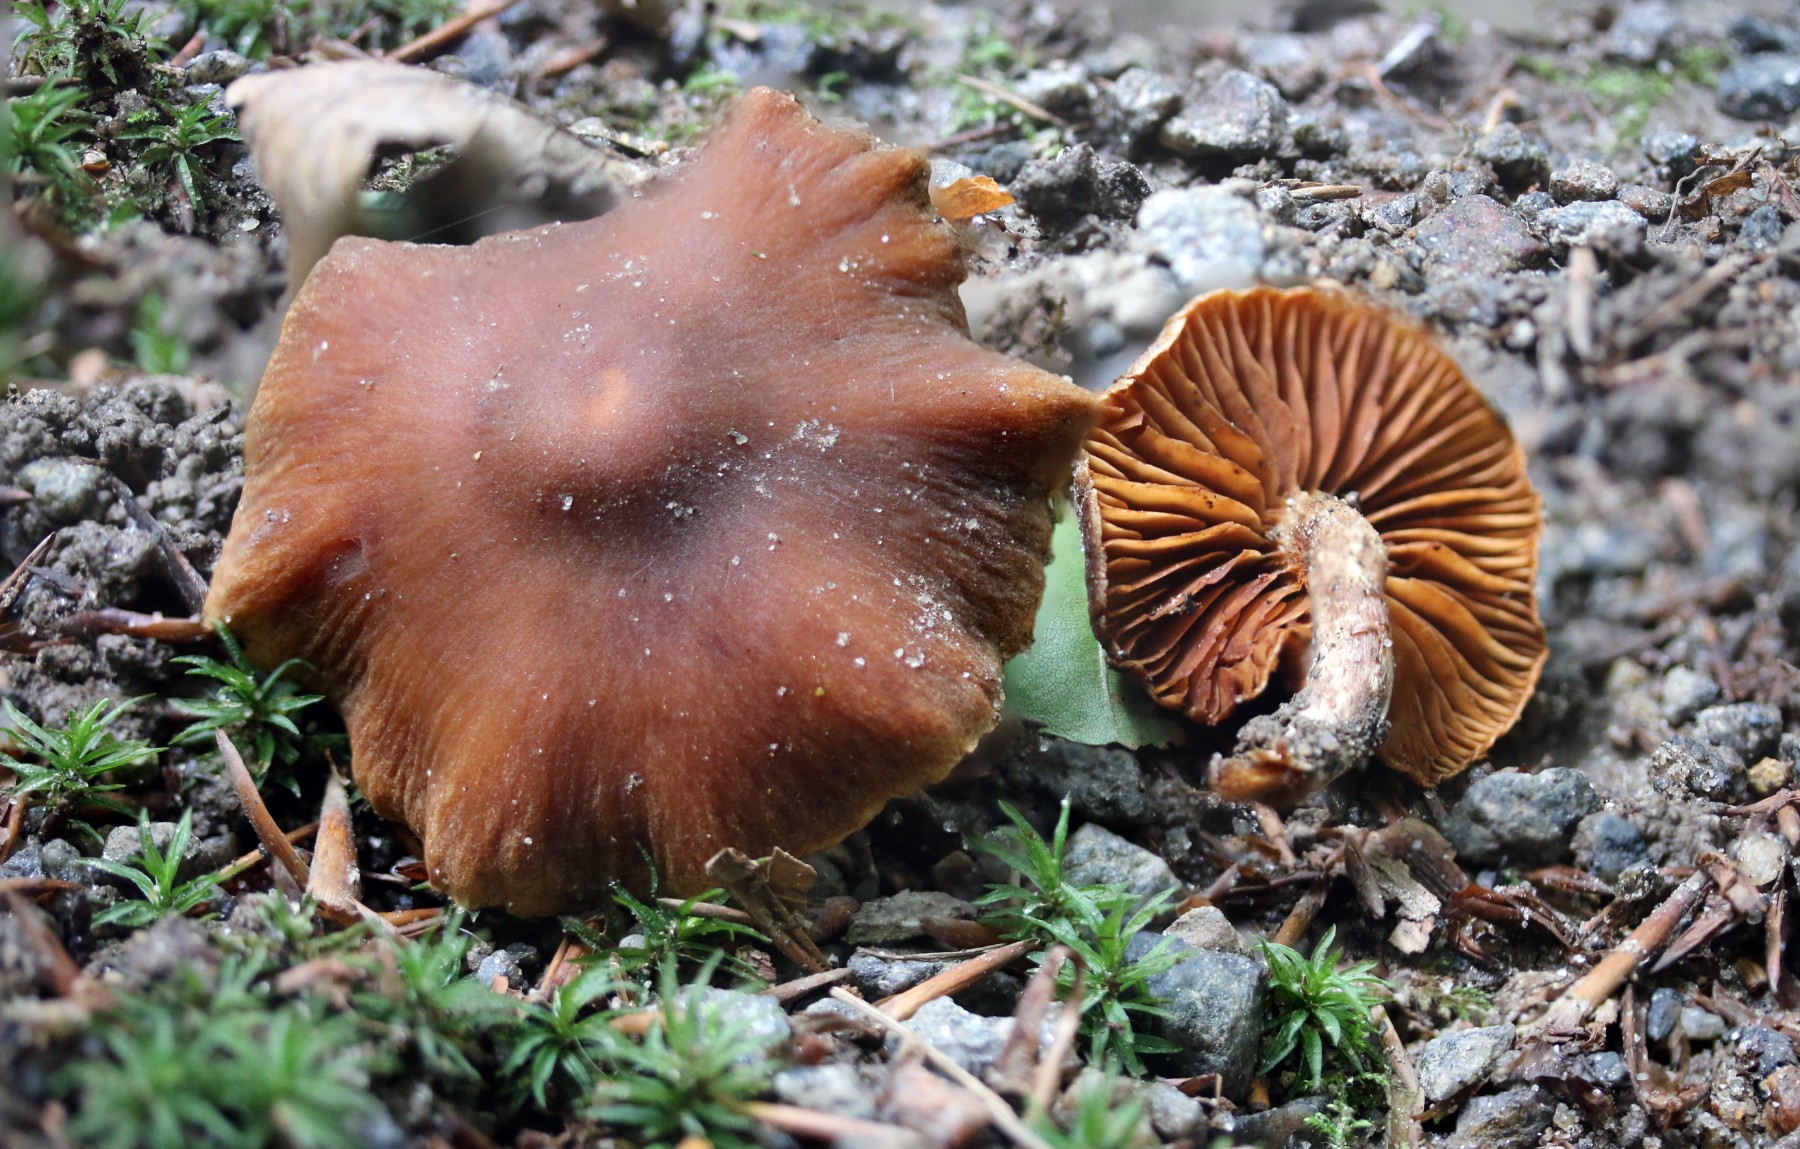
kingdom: Fungi
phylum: Basidiomycota
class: Agaricomycetes
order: Agaricales
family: Cortinariaceae
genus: Cortinarius
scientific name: Cortinarius
